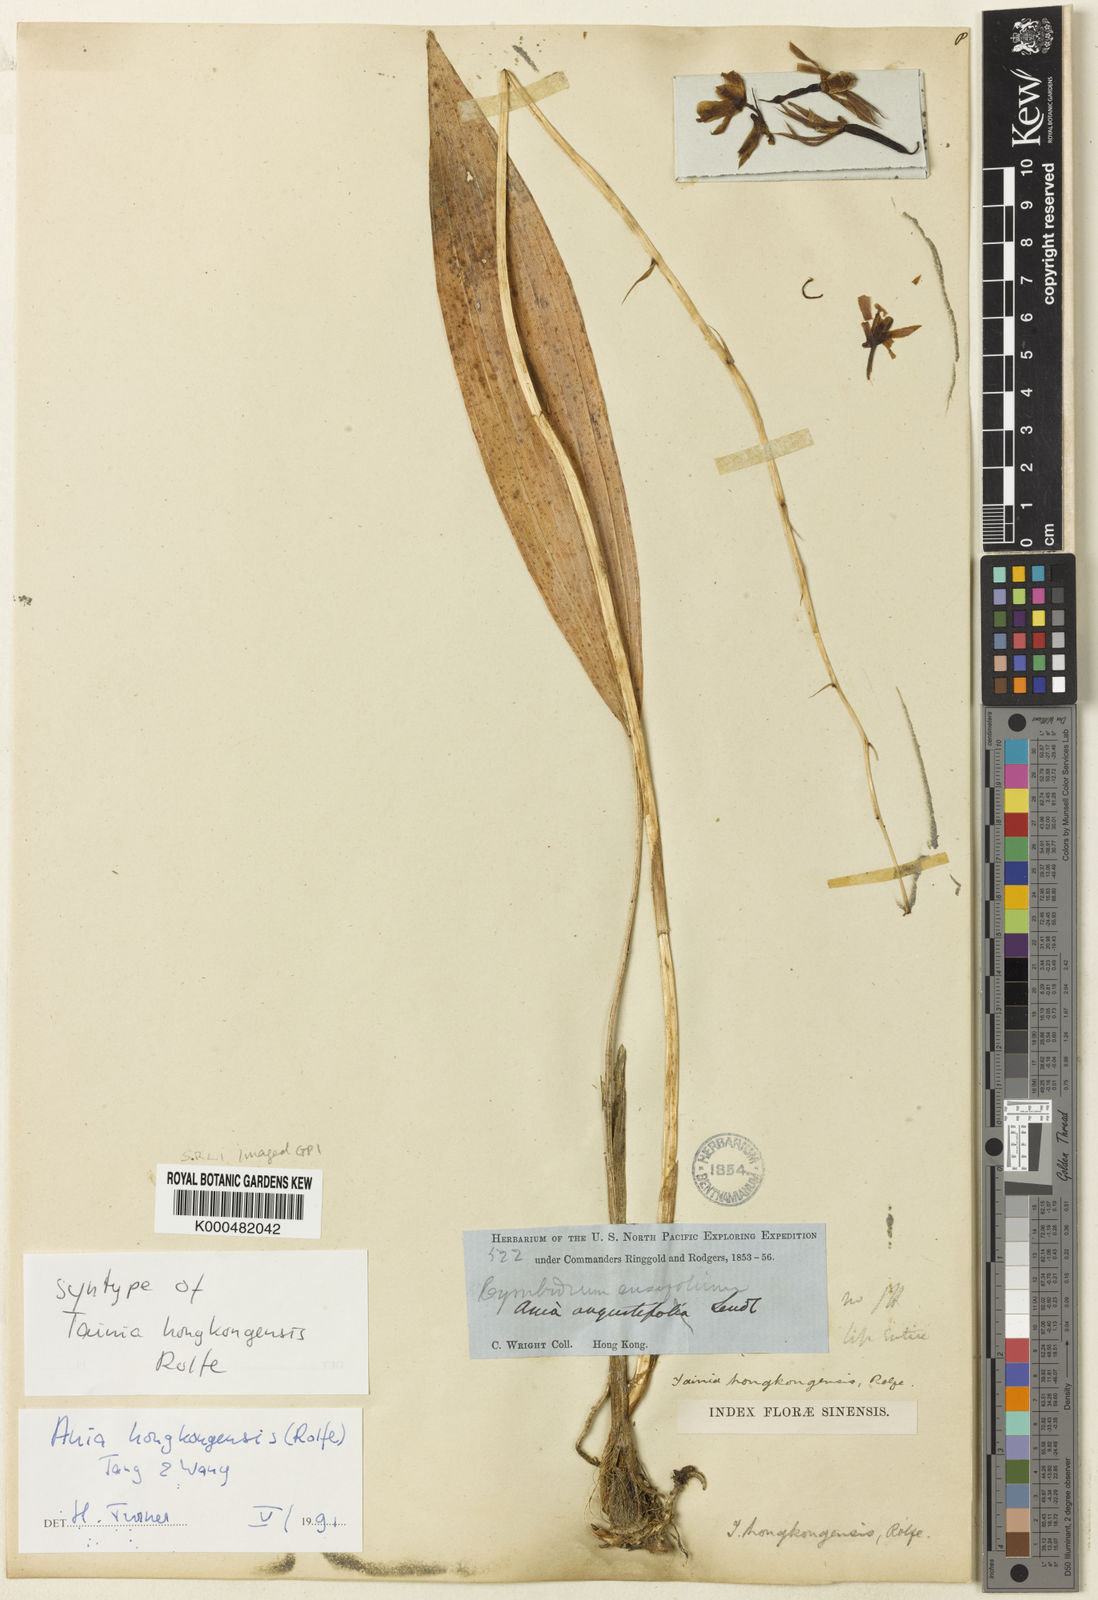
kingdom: Plantae
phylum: Tracheophyta
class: Liliopsida
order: Asparagales
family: Orchidaceae
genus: Ania
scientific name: Ania hongkongensis
